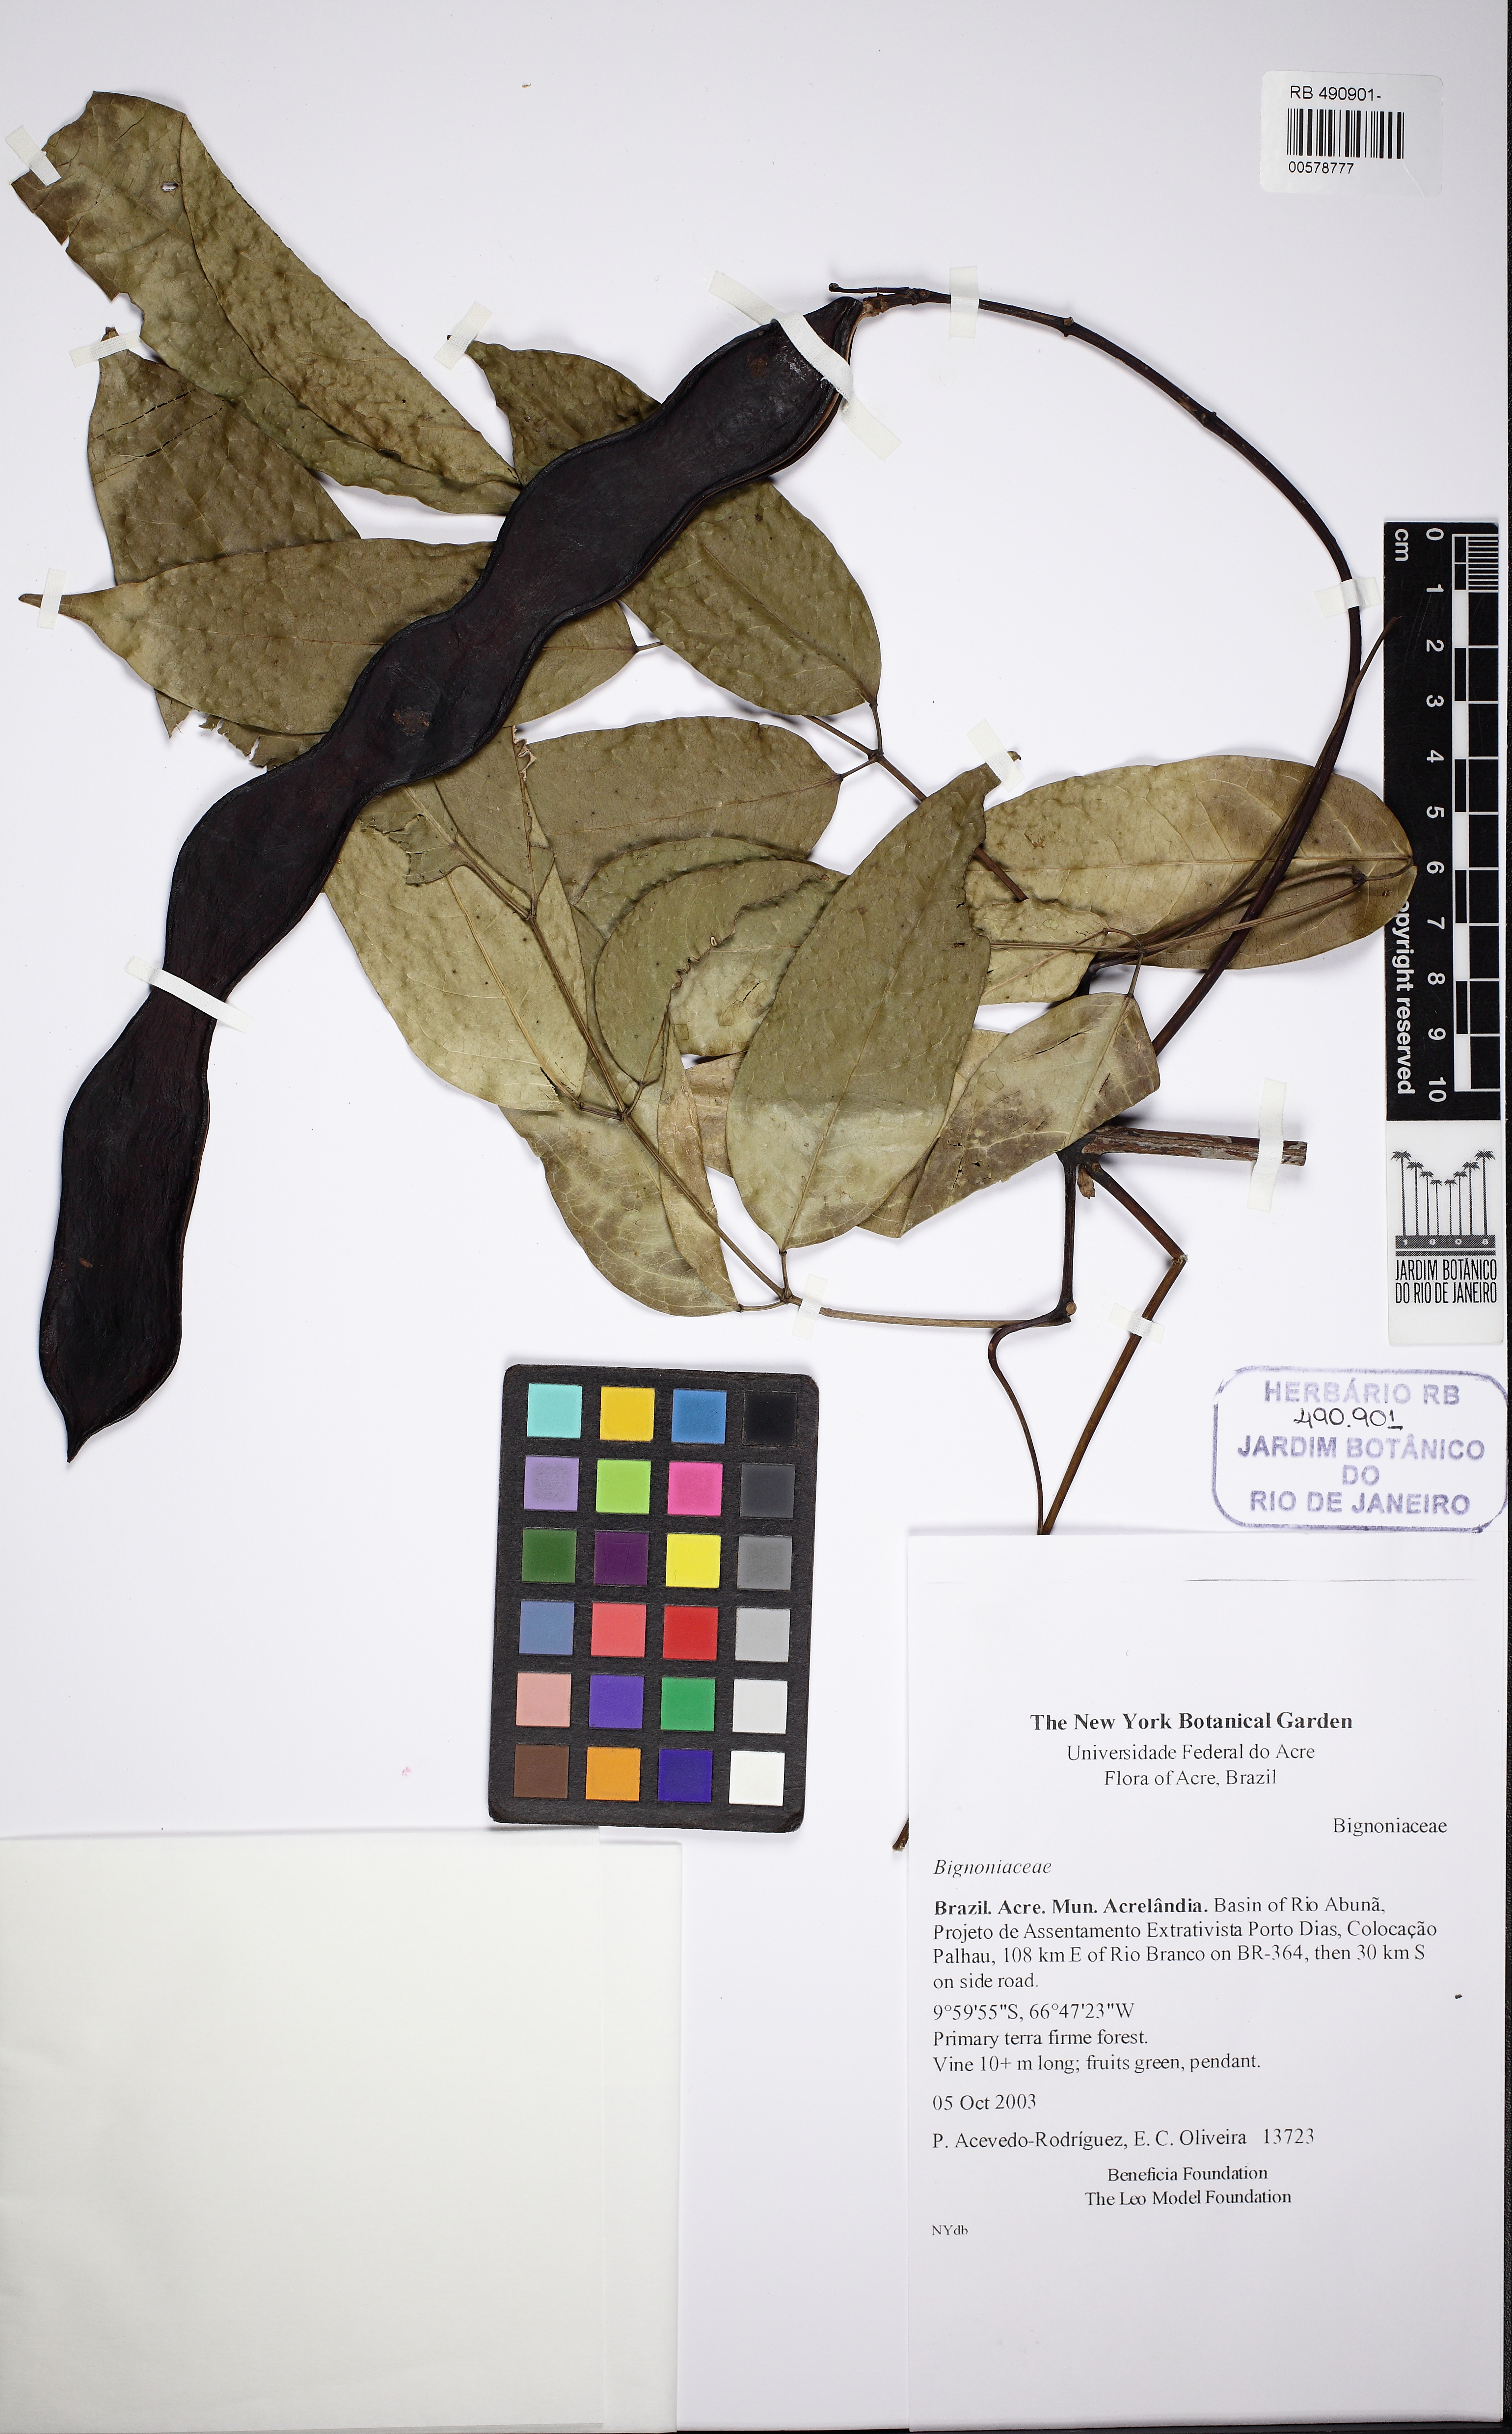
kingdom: Plantae
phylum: Tracheophyta
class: Magnoliopsida
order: Lamiales
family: Bignoniaceae
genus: Adenocalymma
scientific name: Adenocalymma
